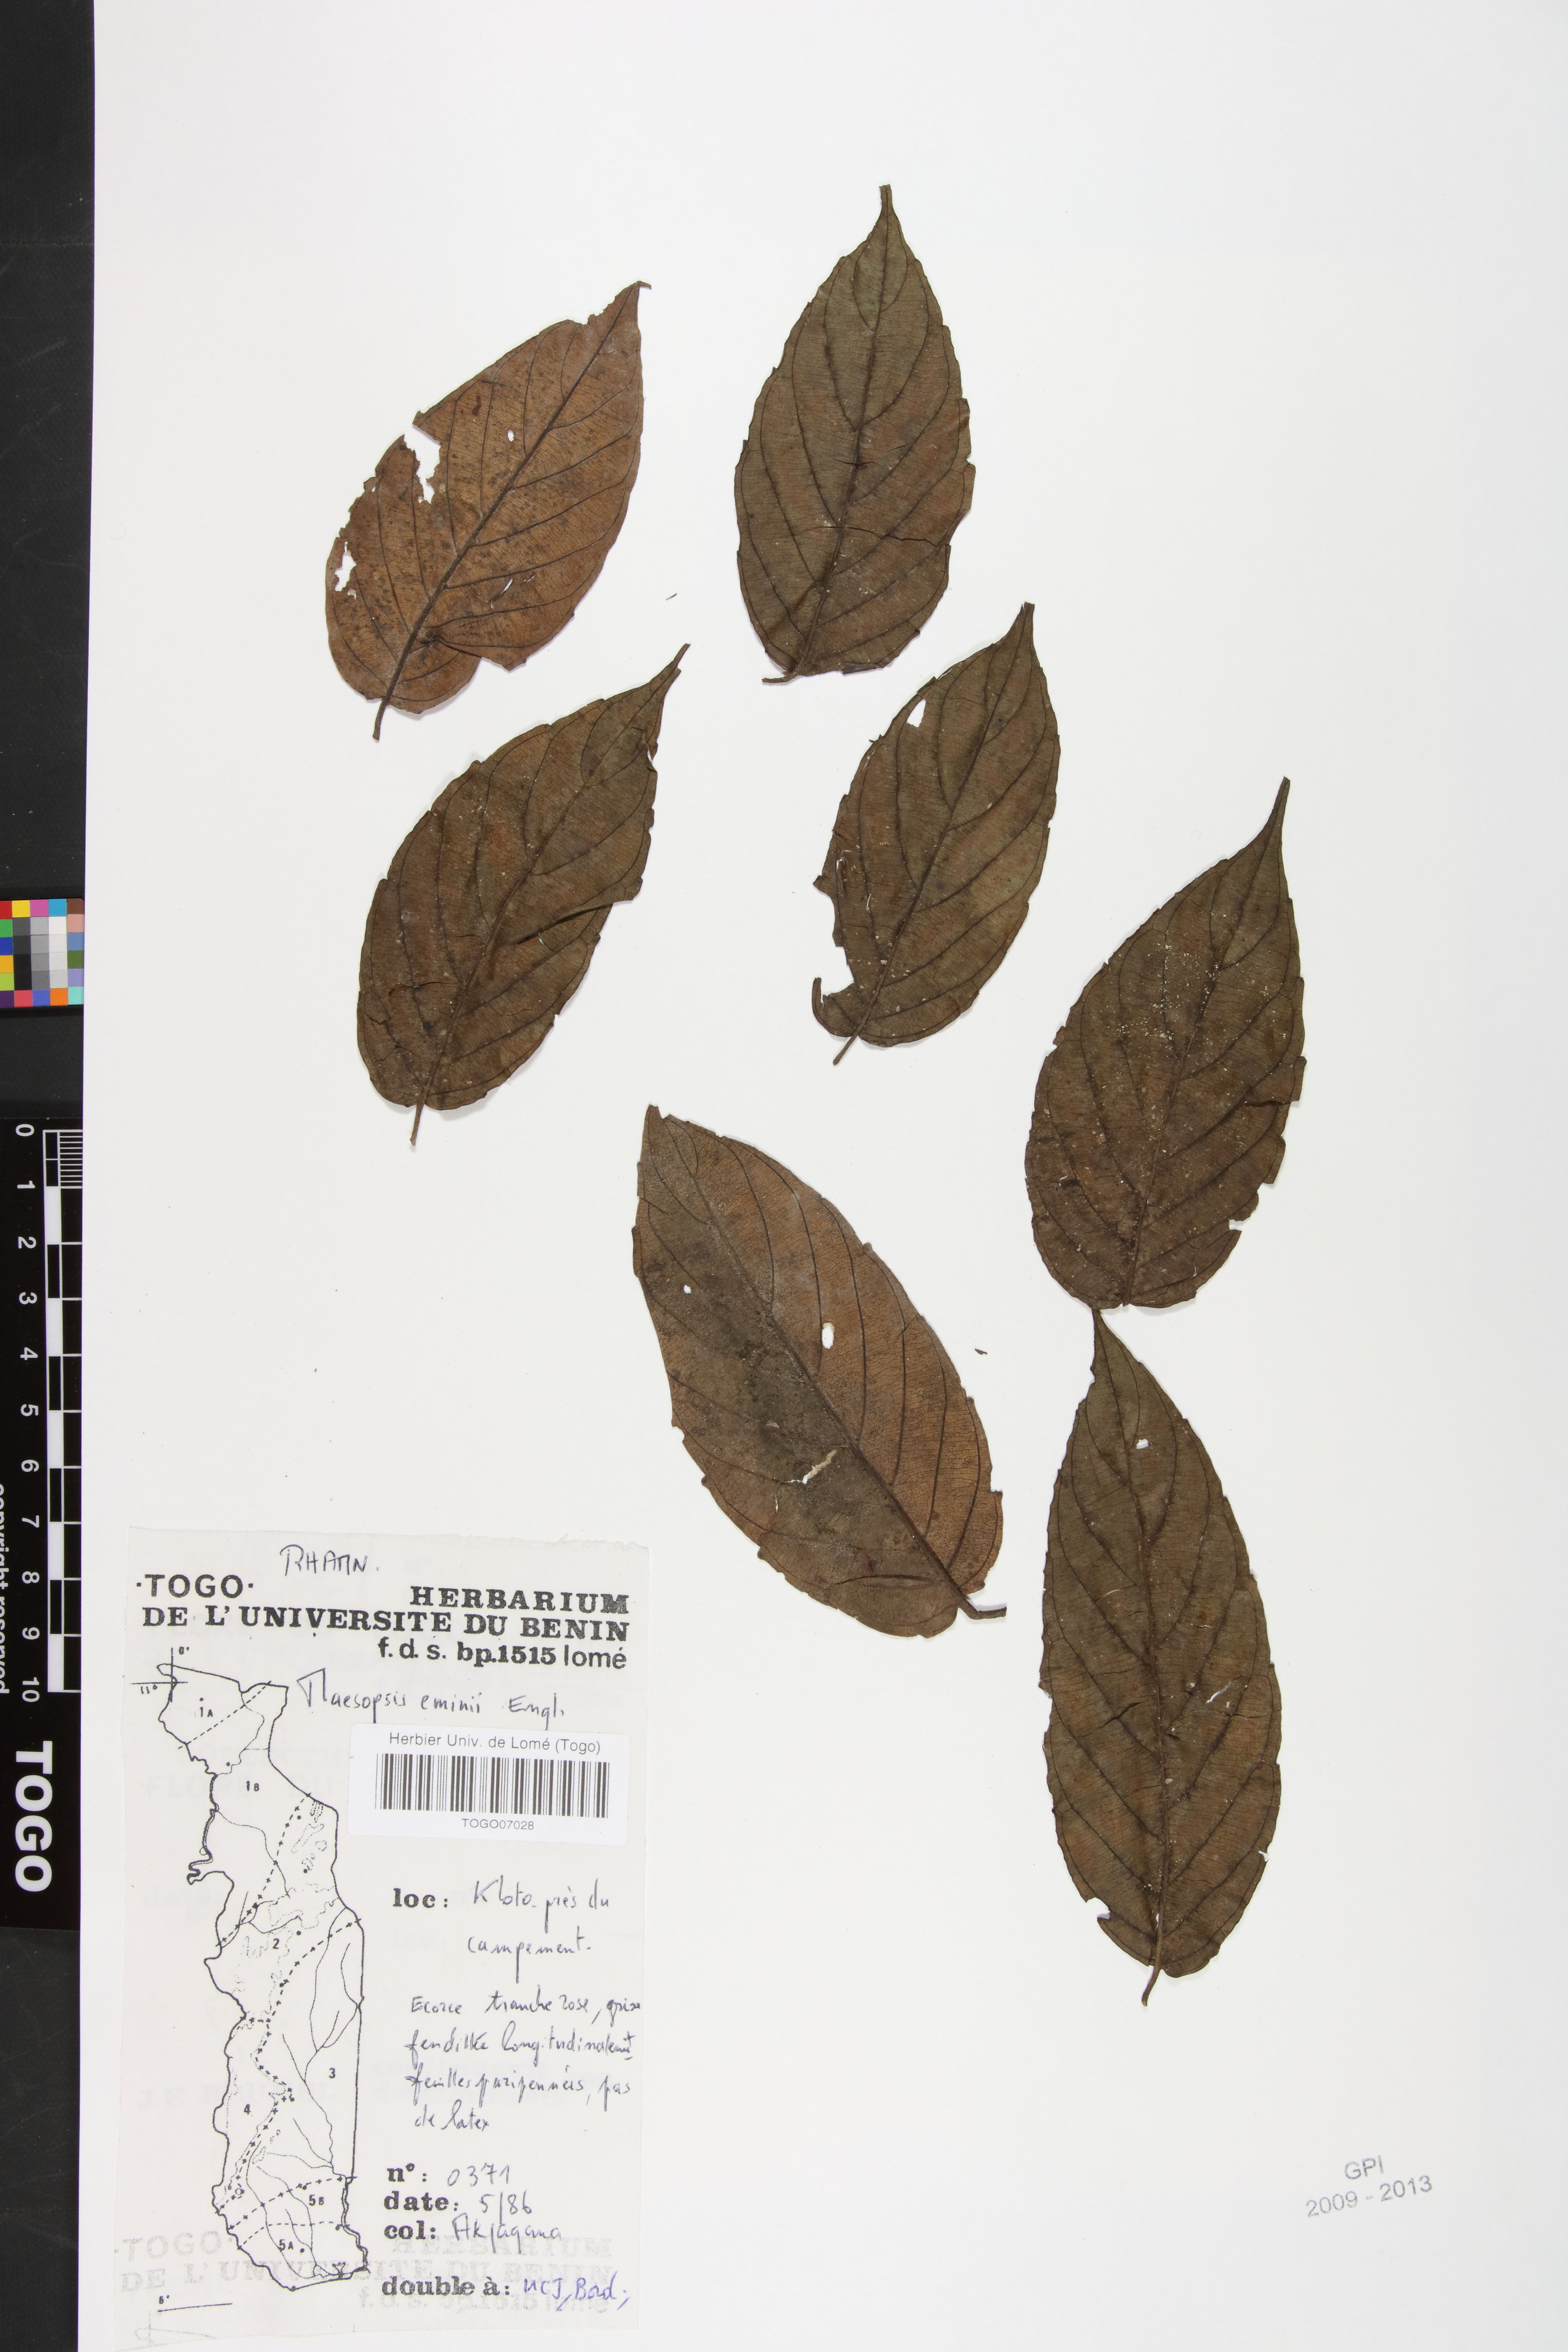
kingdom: Plantae
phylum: Tracheophyta
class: Magnoliopsida
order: Rosales
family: Rhamnaceae
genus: Maesopsis
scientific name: Maesopsis eminii
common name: Umbrella tree
